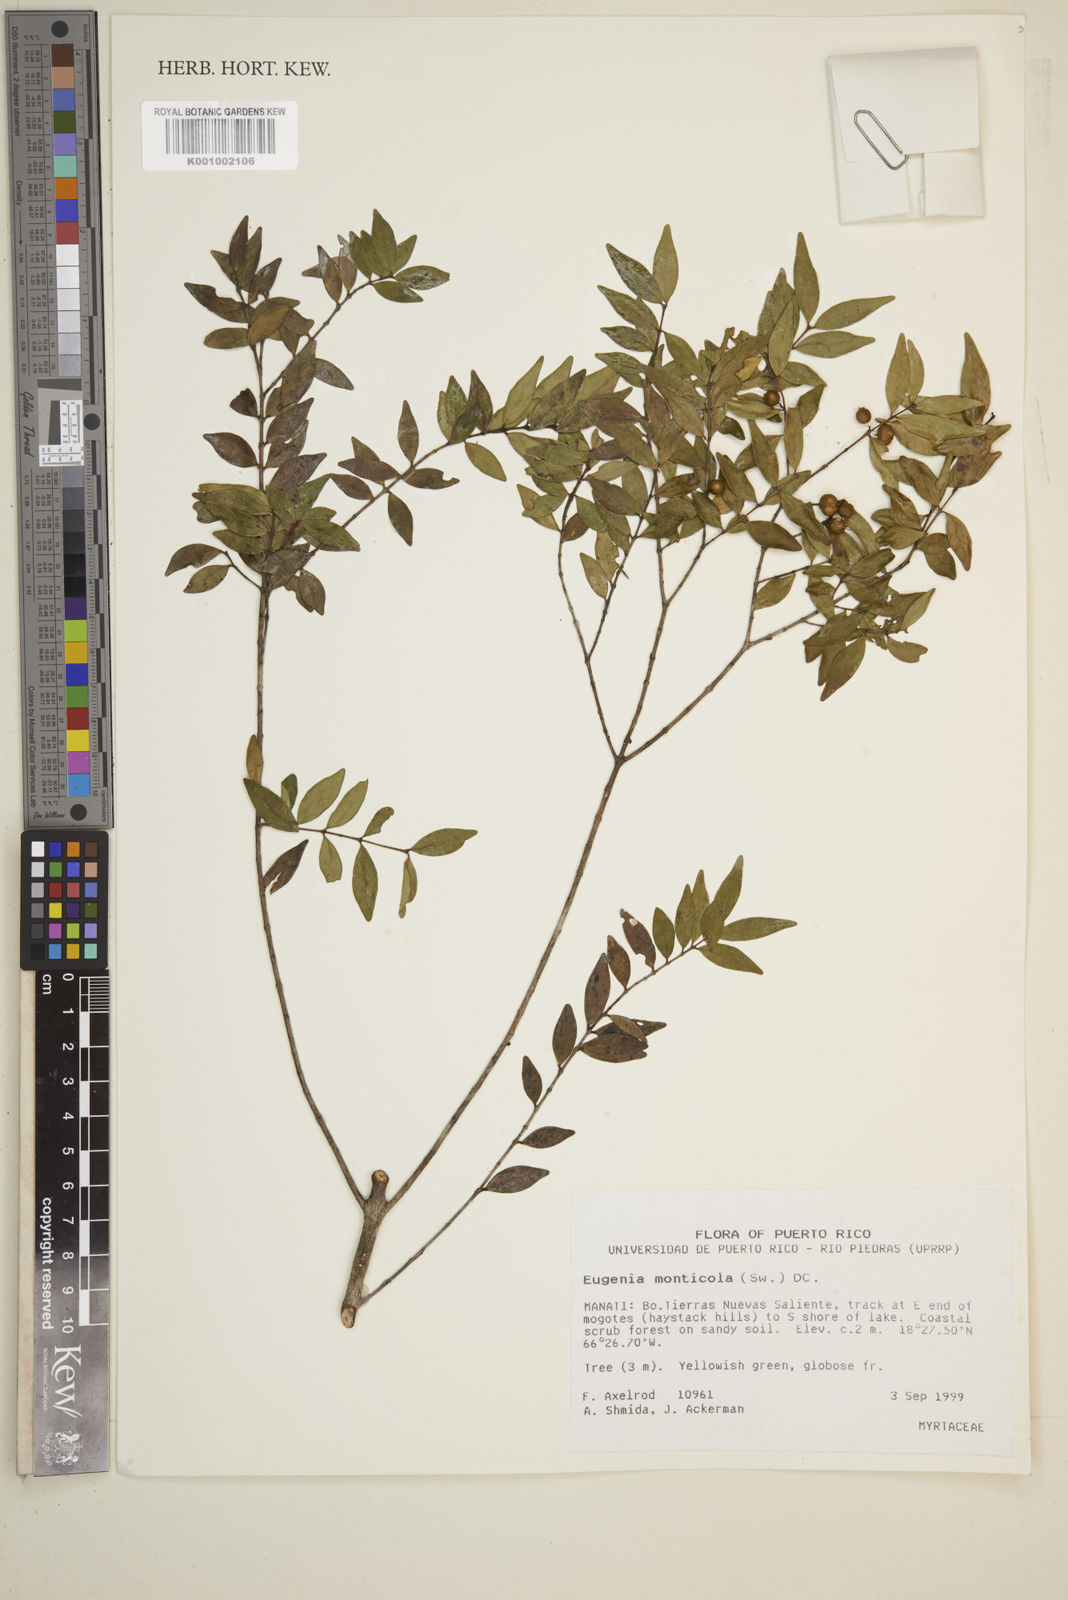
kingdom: Plantae
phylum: Tracheophyta
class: Magnoliopsida
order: Myrtales
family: Myrtaceae
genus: Eugenia
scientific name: Eugenia monticola
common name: Birds berry
